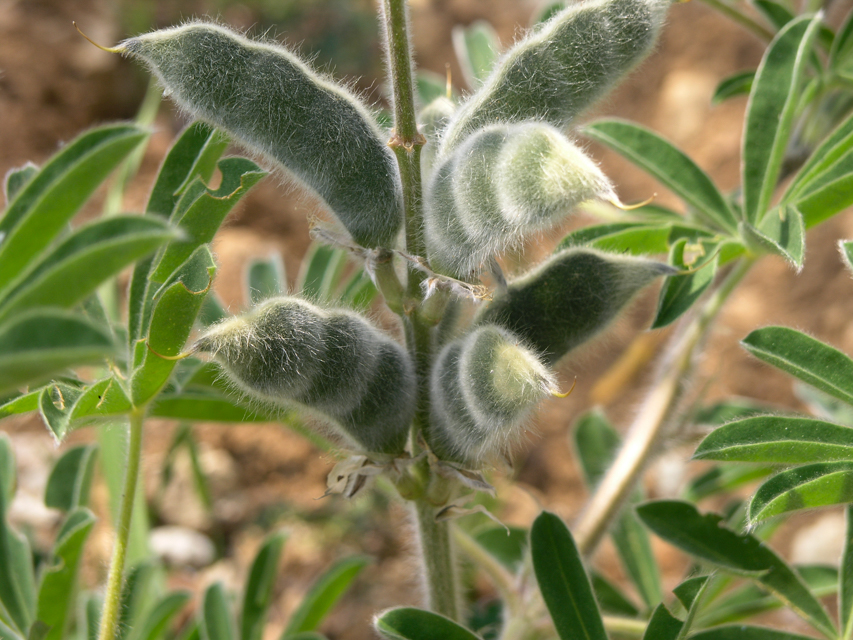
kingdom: Plantae
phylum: Tracheophyta
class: Magnoliopsida
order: Fabales
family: Fabaceae
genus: Lupinus
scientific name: Lupinus pilosus
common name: Blue lupine
